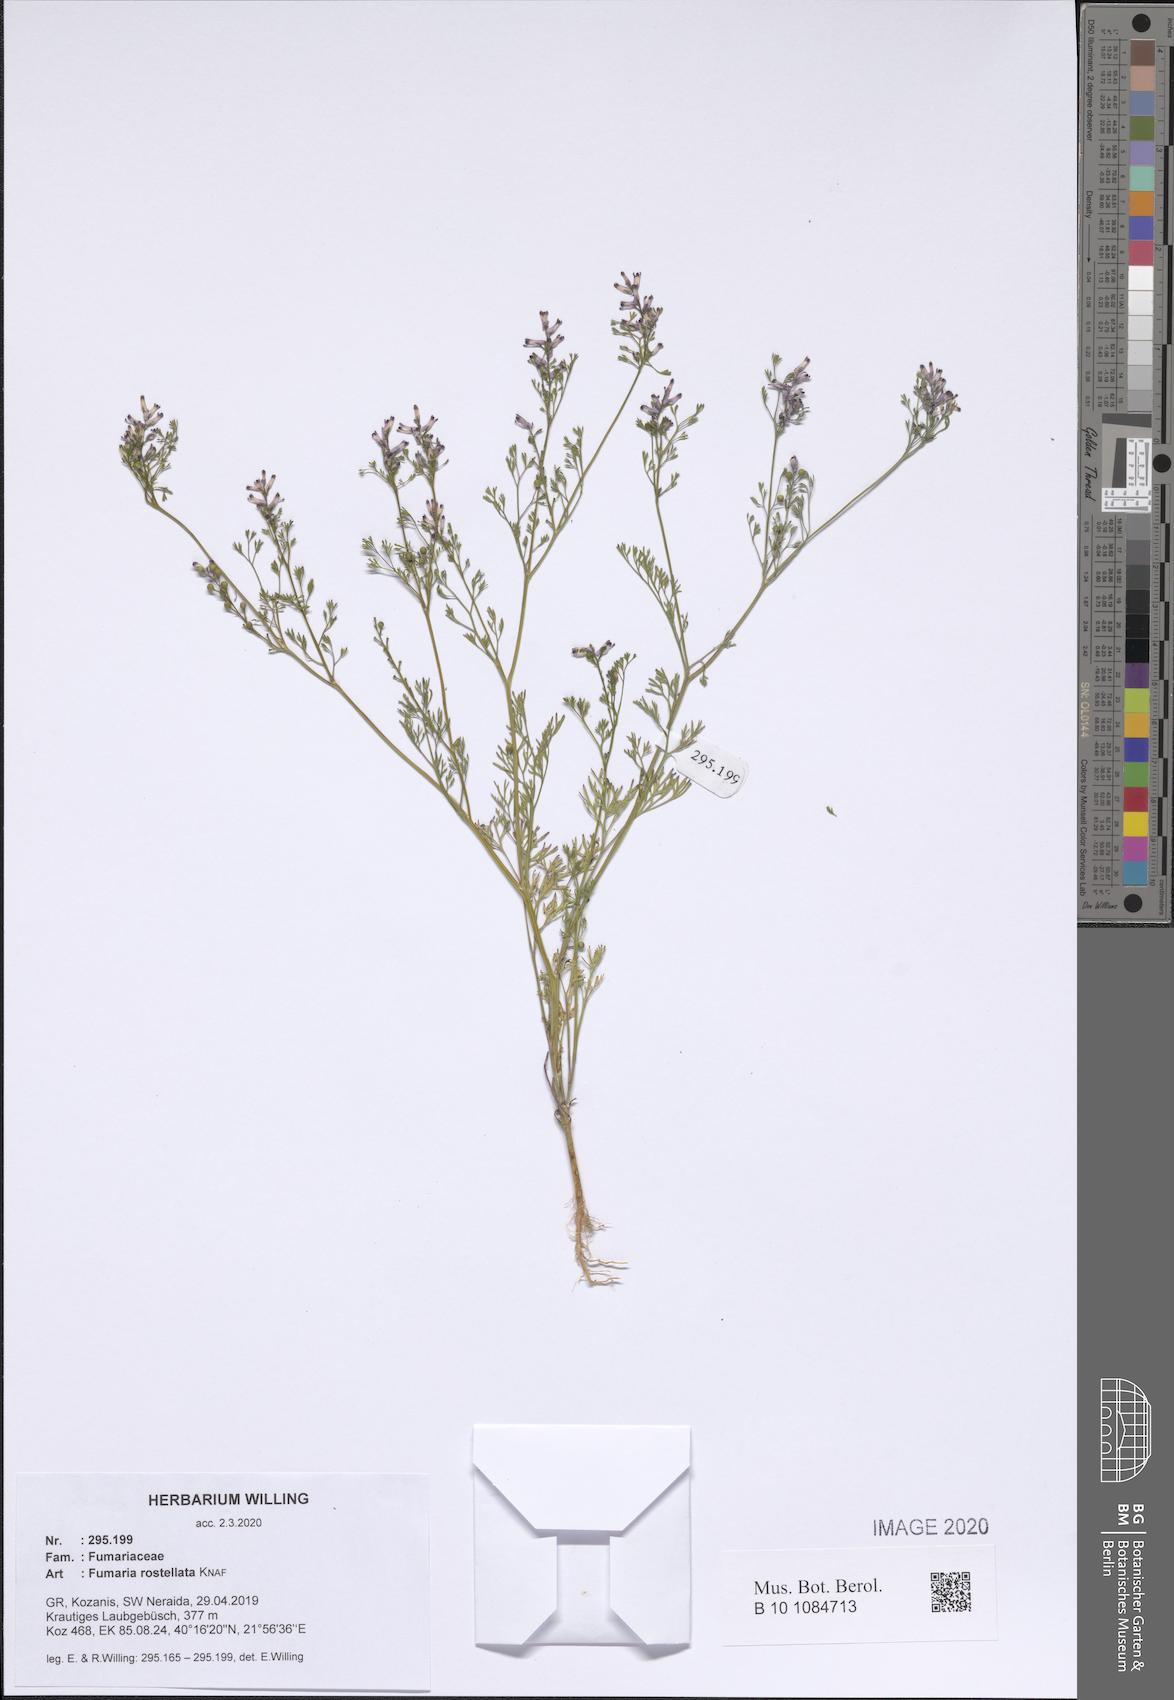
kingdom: Plantae
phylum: Tracheophyta
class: Magnoliopsida
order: Ranunculales
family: Papaveraceae
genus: Fumaria
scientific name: Fumaria rostellata
